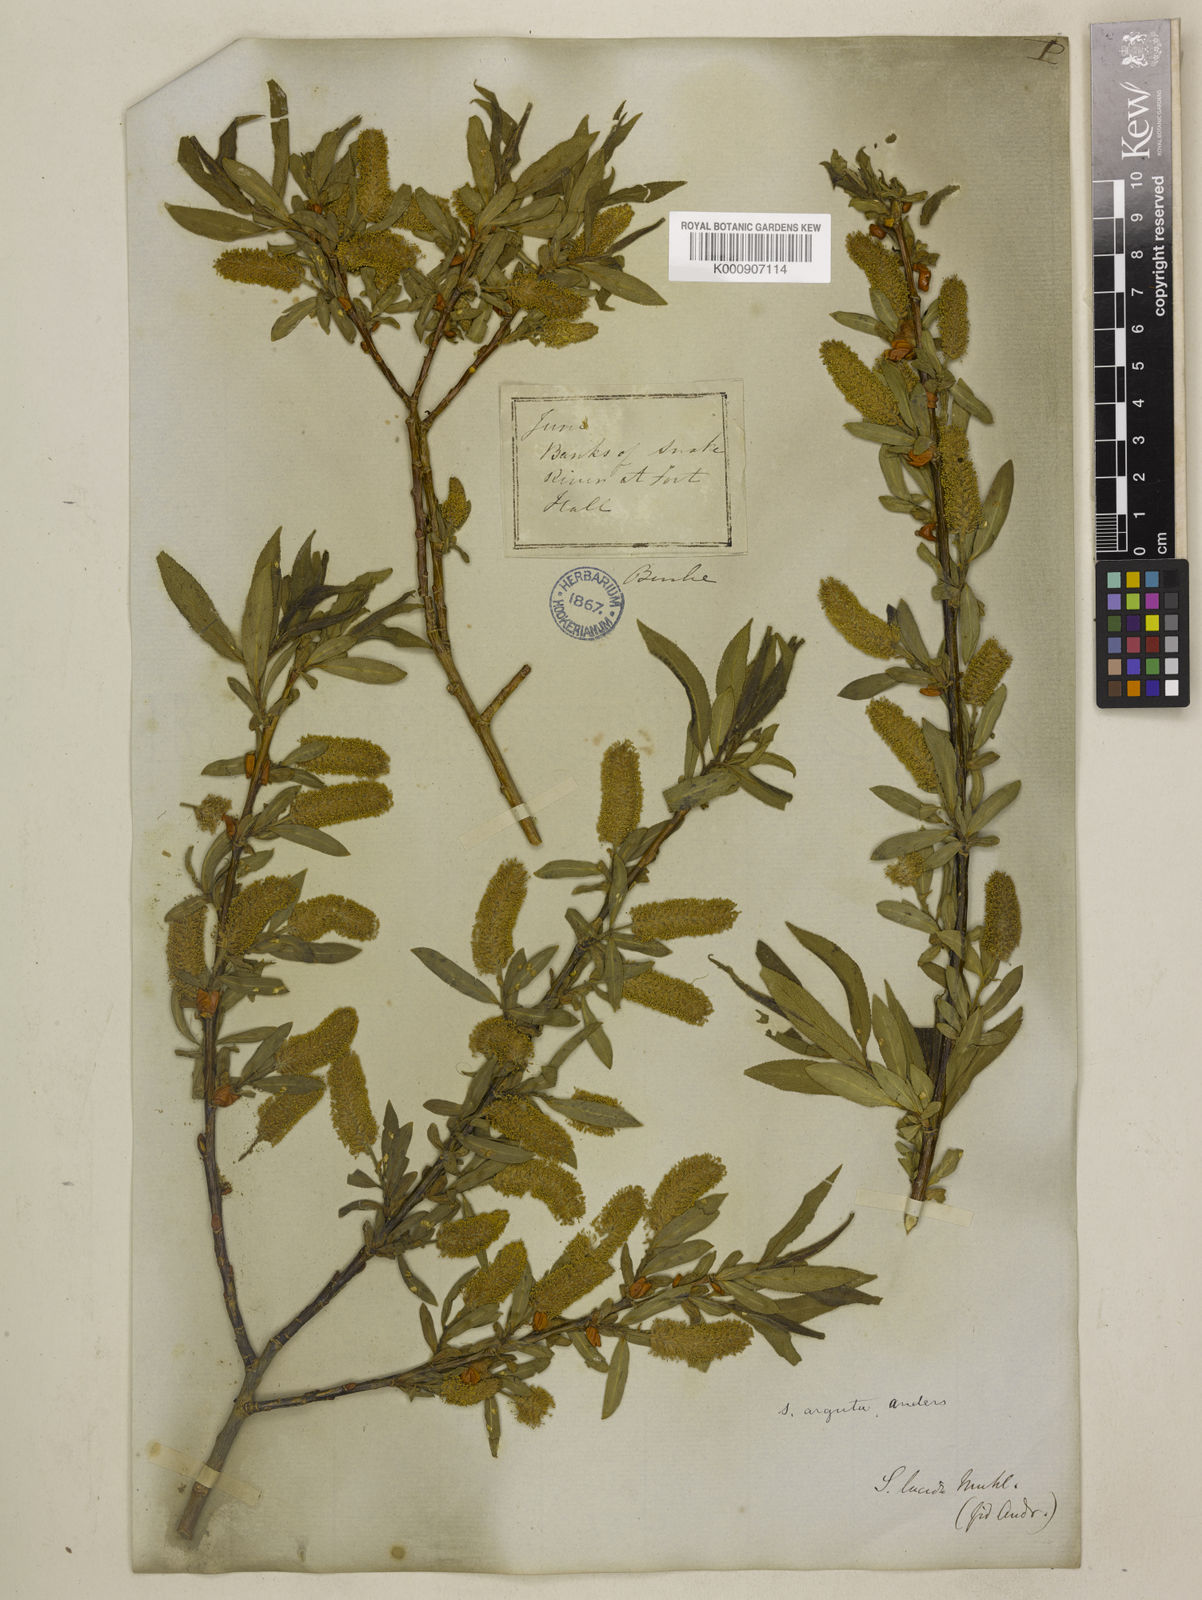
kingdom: Plantae
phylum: Tracheophyta
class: Magnoliopsida
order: Malpighiales
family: Salicaceae
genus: Salix
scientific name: Salix
